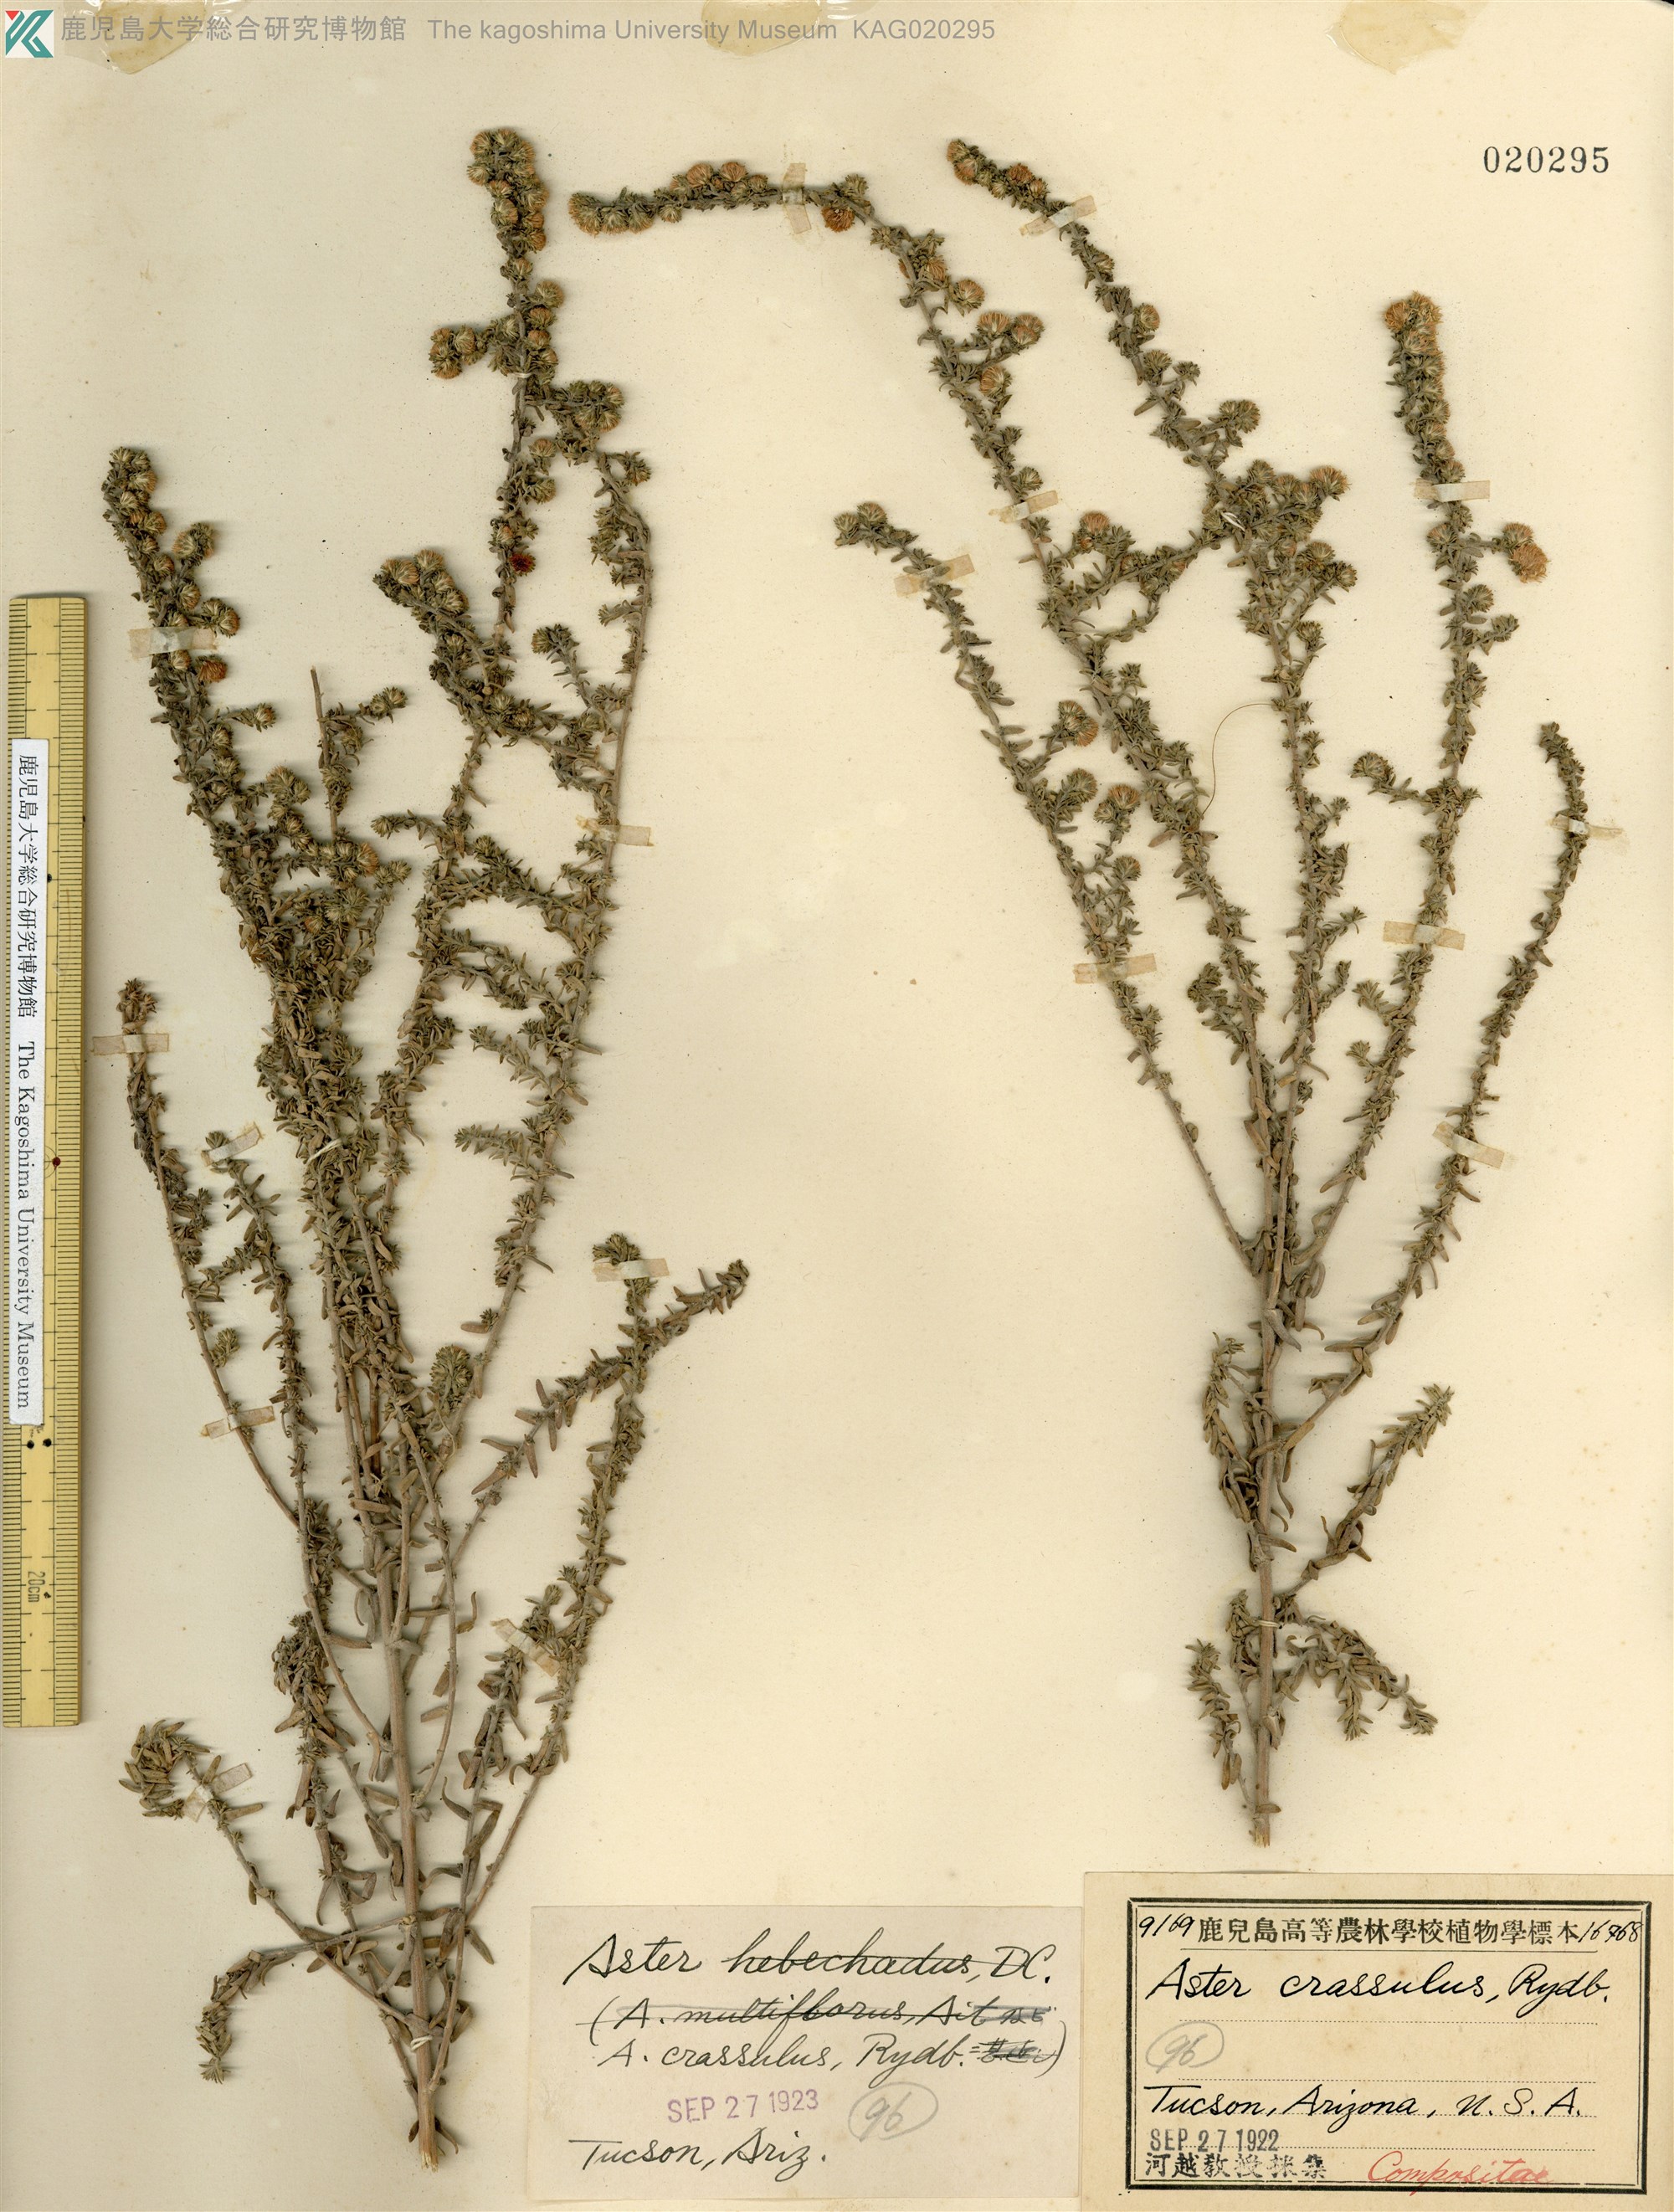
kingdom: Plantae
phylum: Tracheophyta
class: Magnoliopsida
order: Asterales
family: Asteraceae
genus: Symphyotrichum
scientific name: Symphyotrichum falcatum
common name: Creeping white prairie aster
